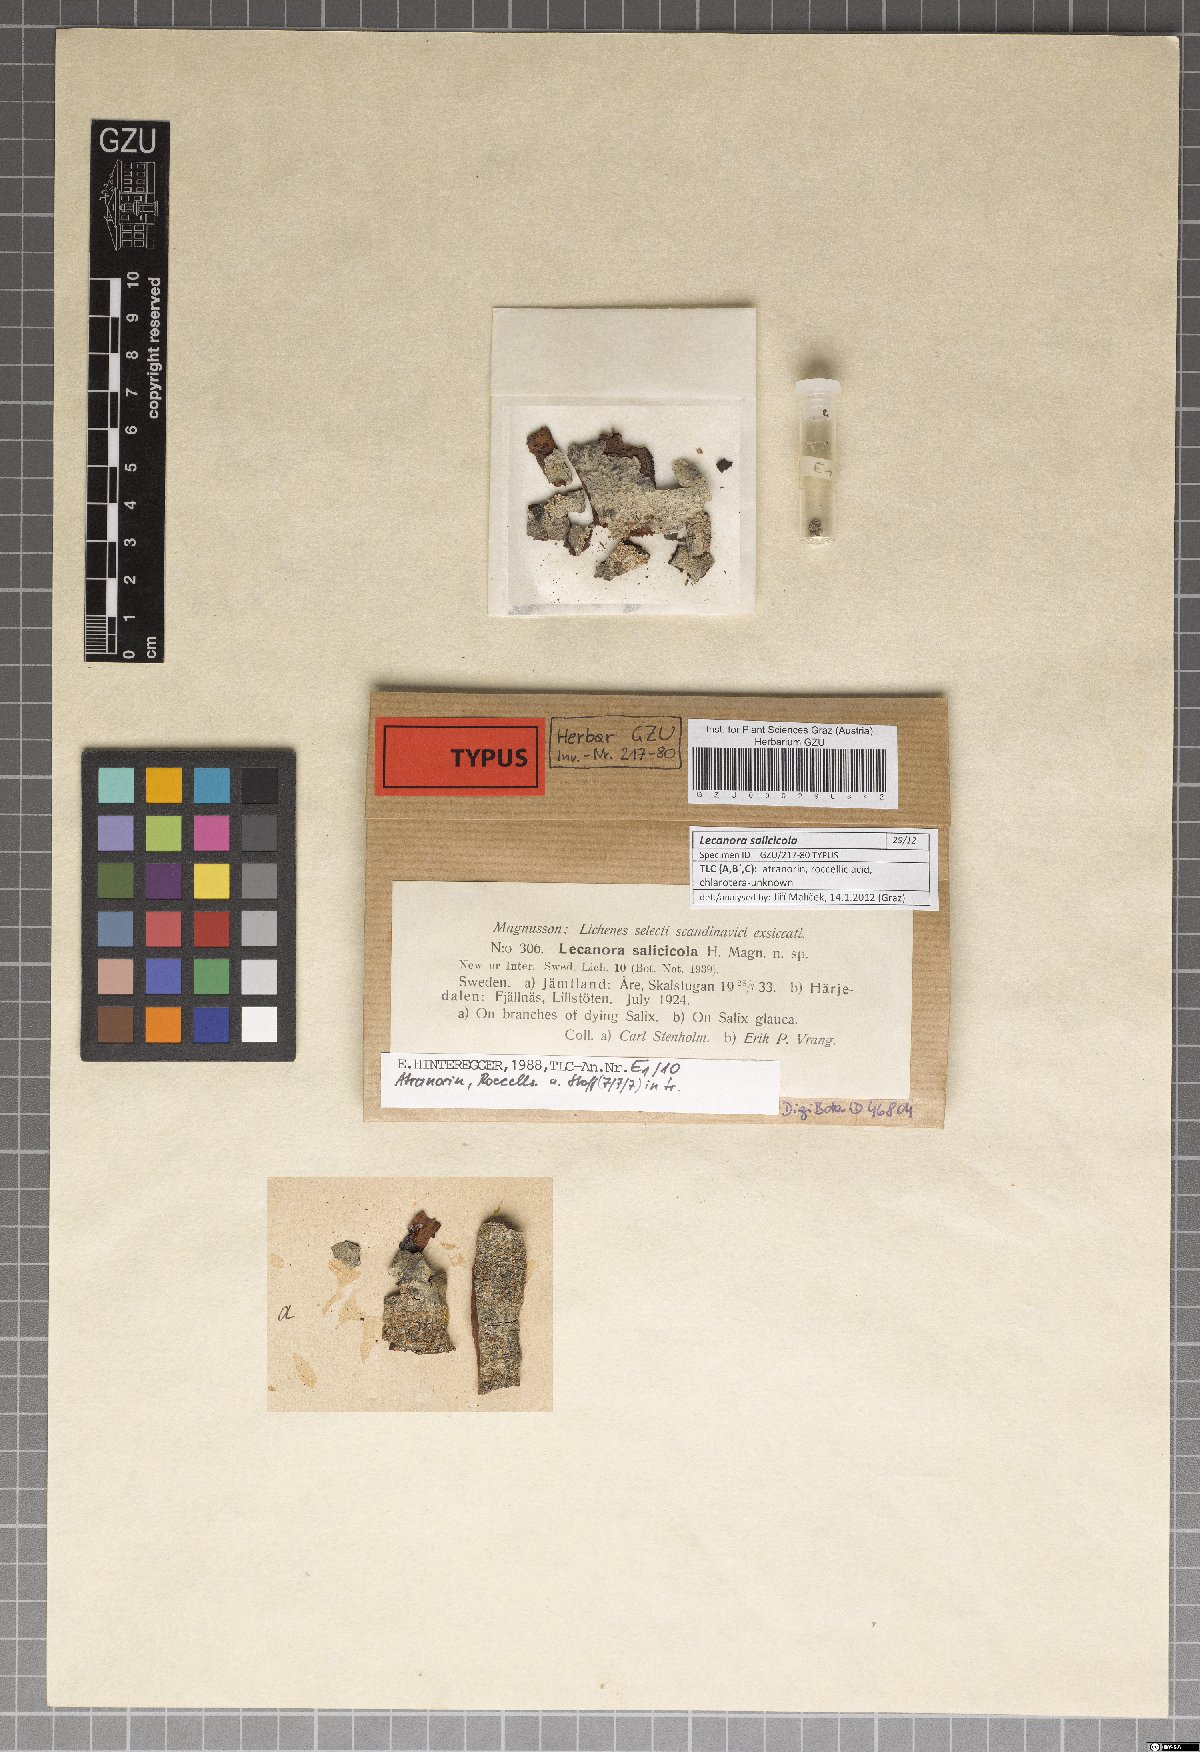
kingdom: Fungi
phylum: Ascomycota
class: Lecanoromycetes
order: Lecanorales
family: Lecanoraceae
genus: Lecanora
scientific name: Lecanora salicicola
